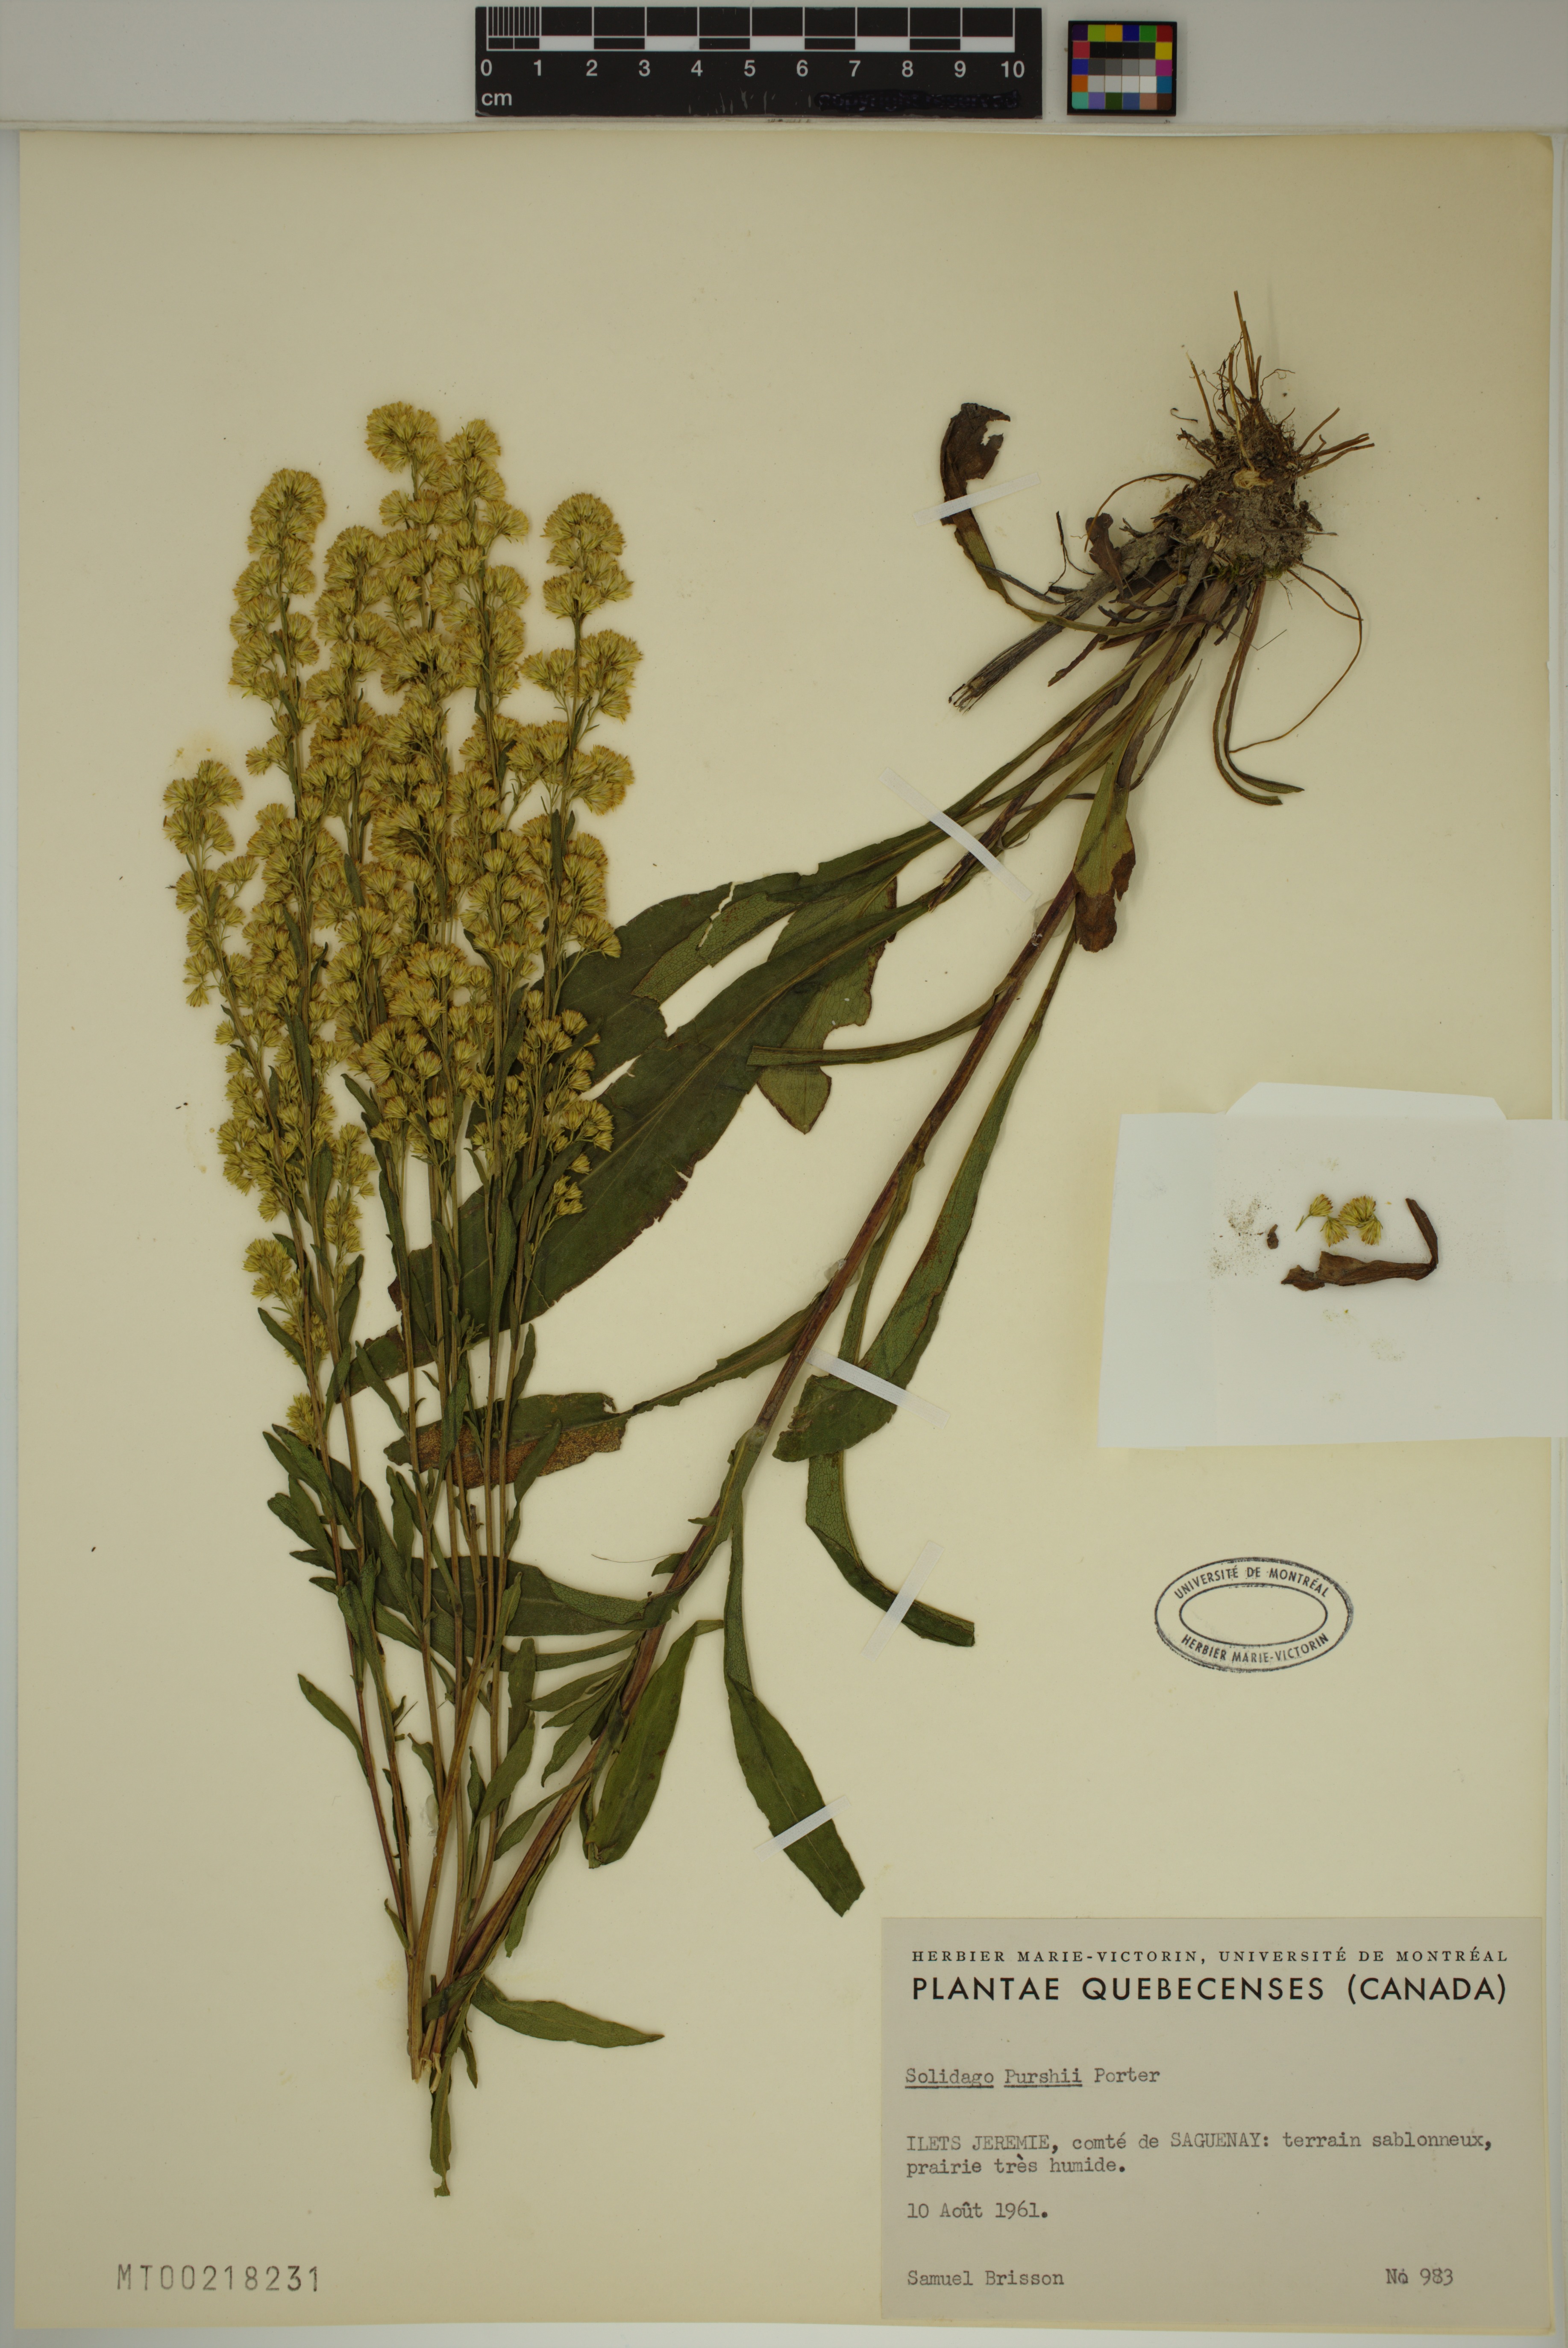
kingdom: Plantae
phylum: Tracheophyta
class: Magnoliopsida
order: Asterales
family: Asteraceae
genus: Solidago
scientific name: Solidago uliginosa
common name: Bog goldenrod
